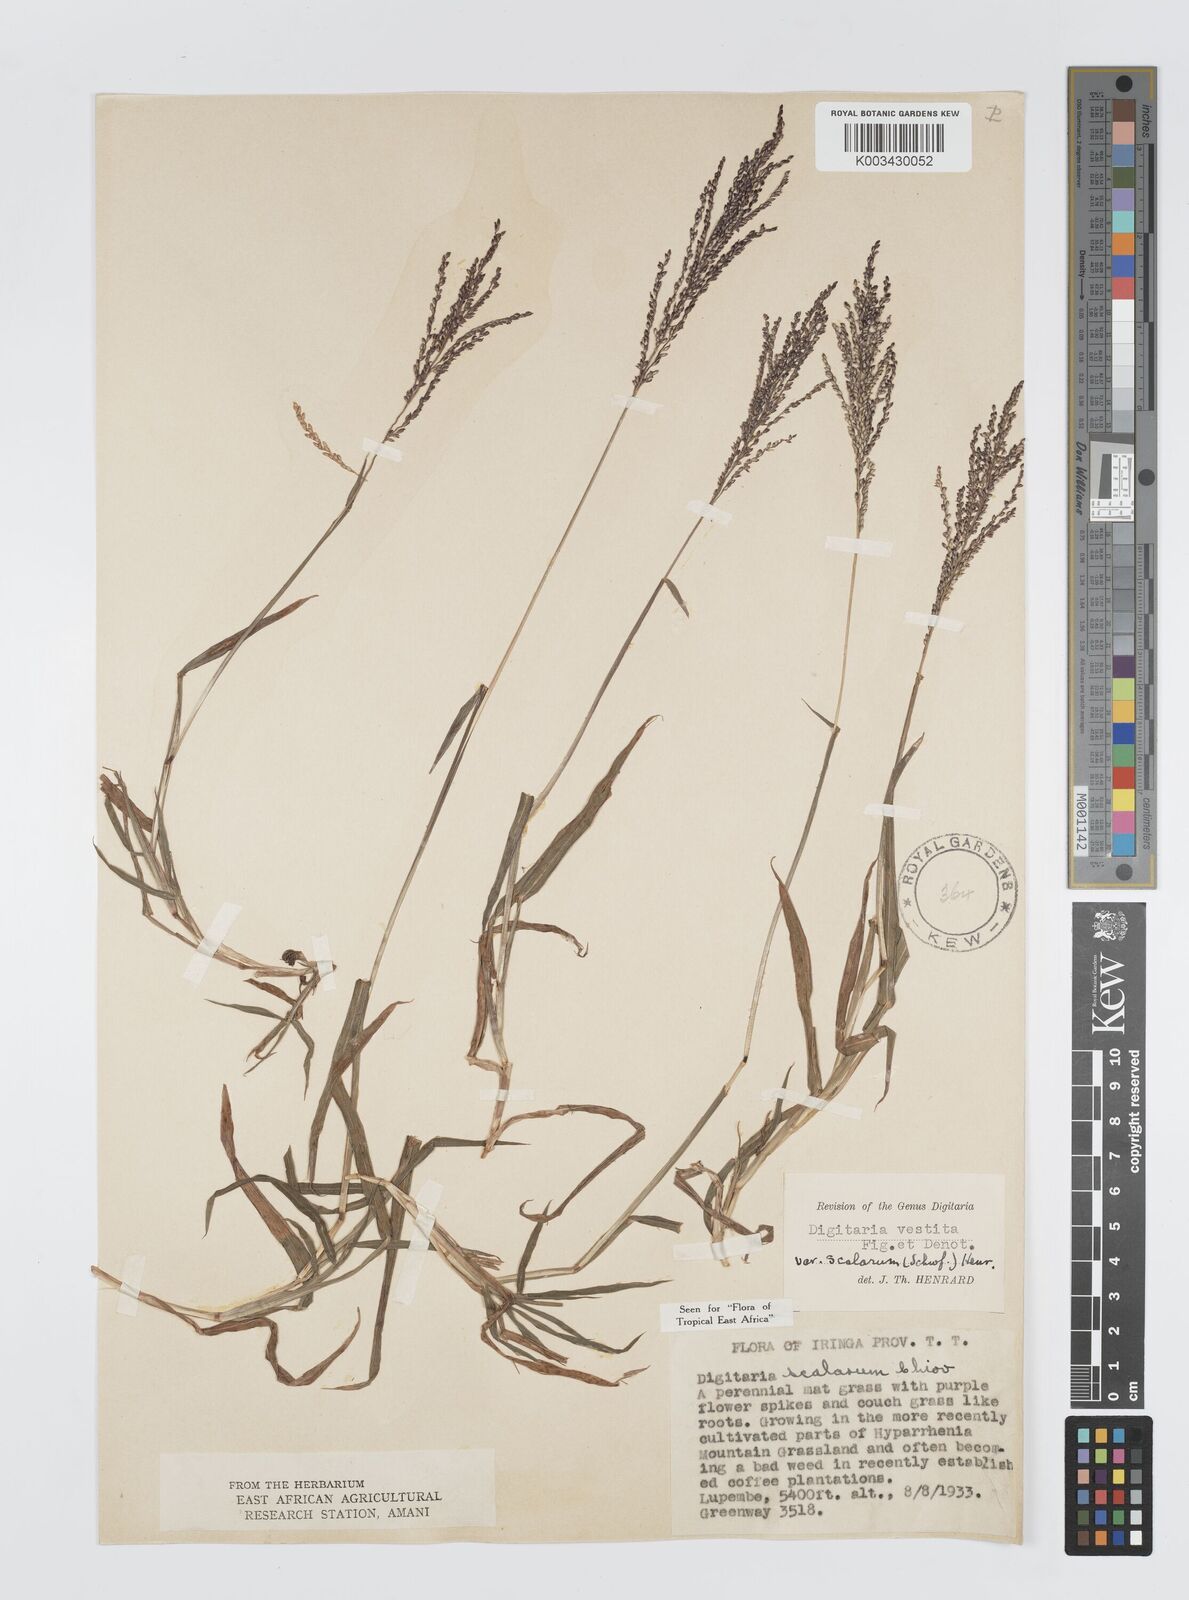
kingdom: Plantae
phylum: Tracheophyta
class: Liliopsida
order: Poales
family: Poaceae
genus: Digitaria
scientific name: Digitaria abyssinica
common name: African couchgrass
